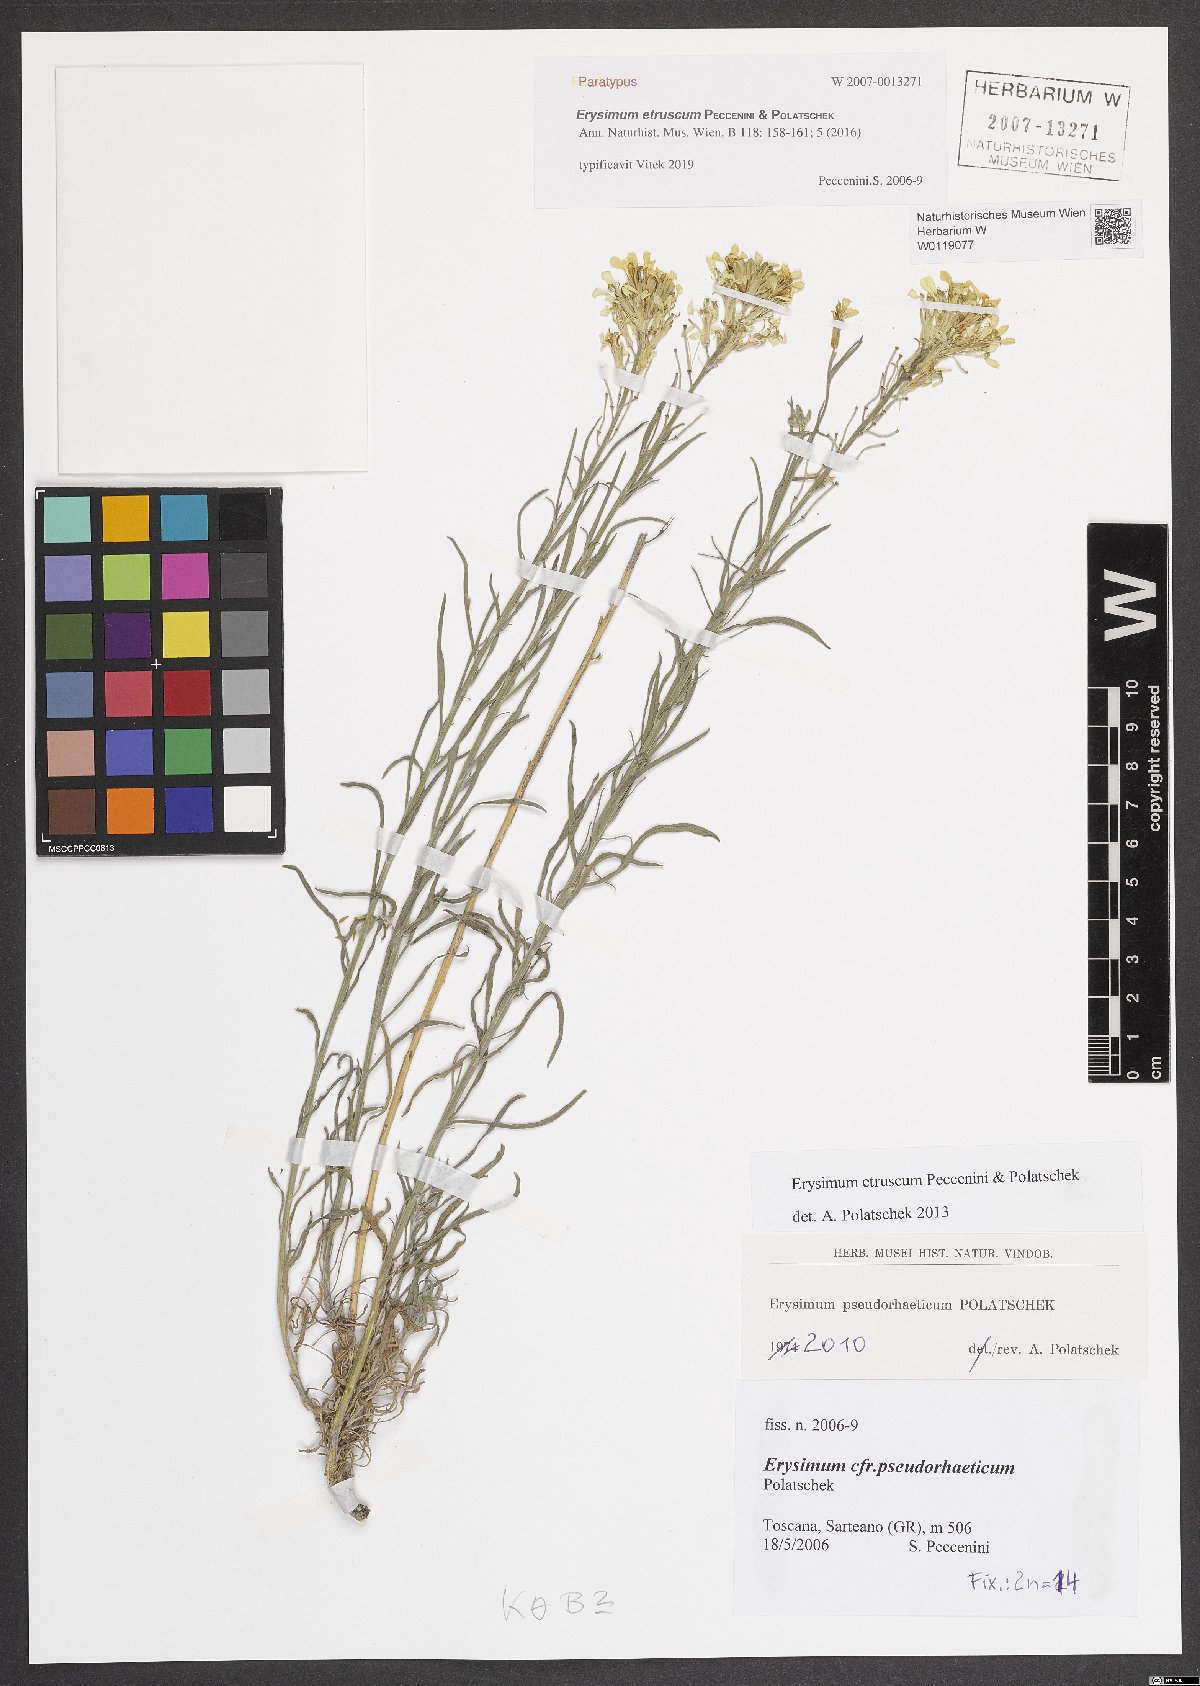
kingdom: Plantae
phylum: Tracheophyta
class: Magnoliopsida
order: Brassicales
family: Brassicaceae
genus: Erysimum
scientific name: Erysimum pseudorhaeticum
